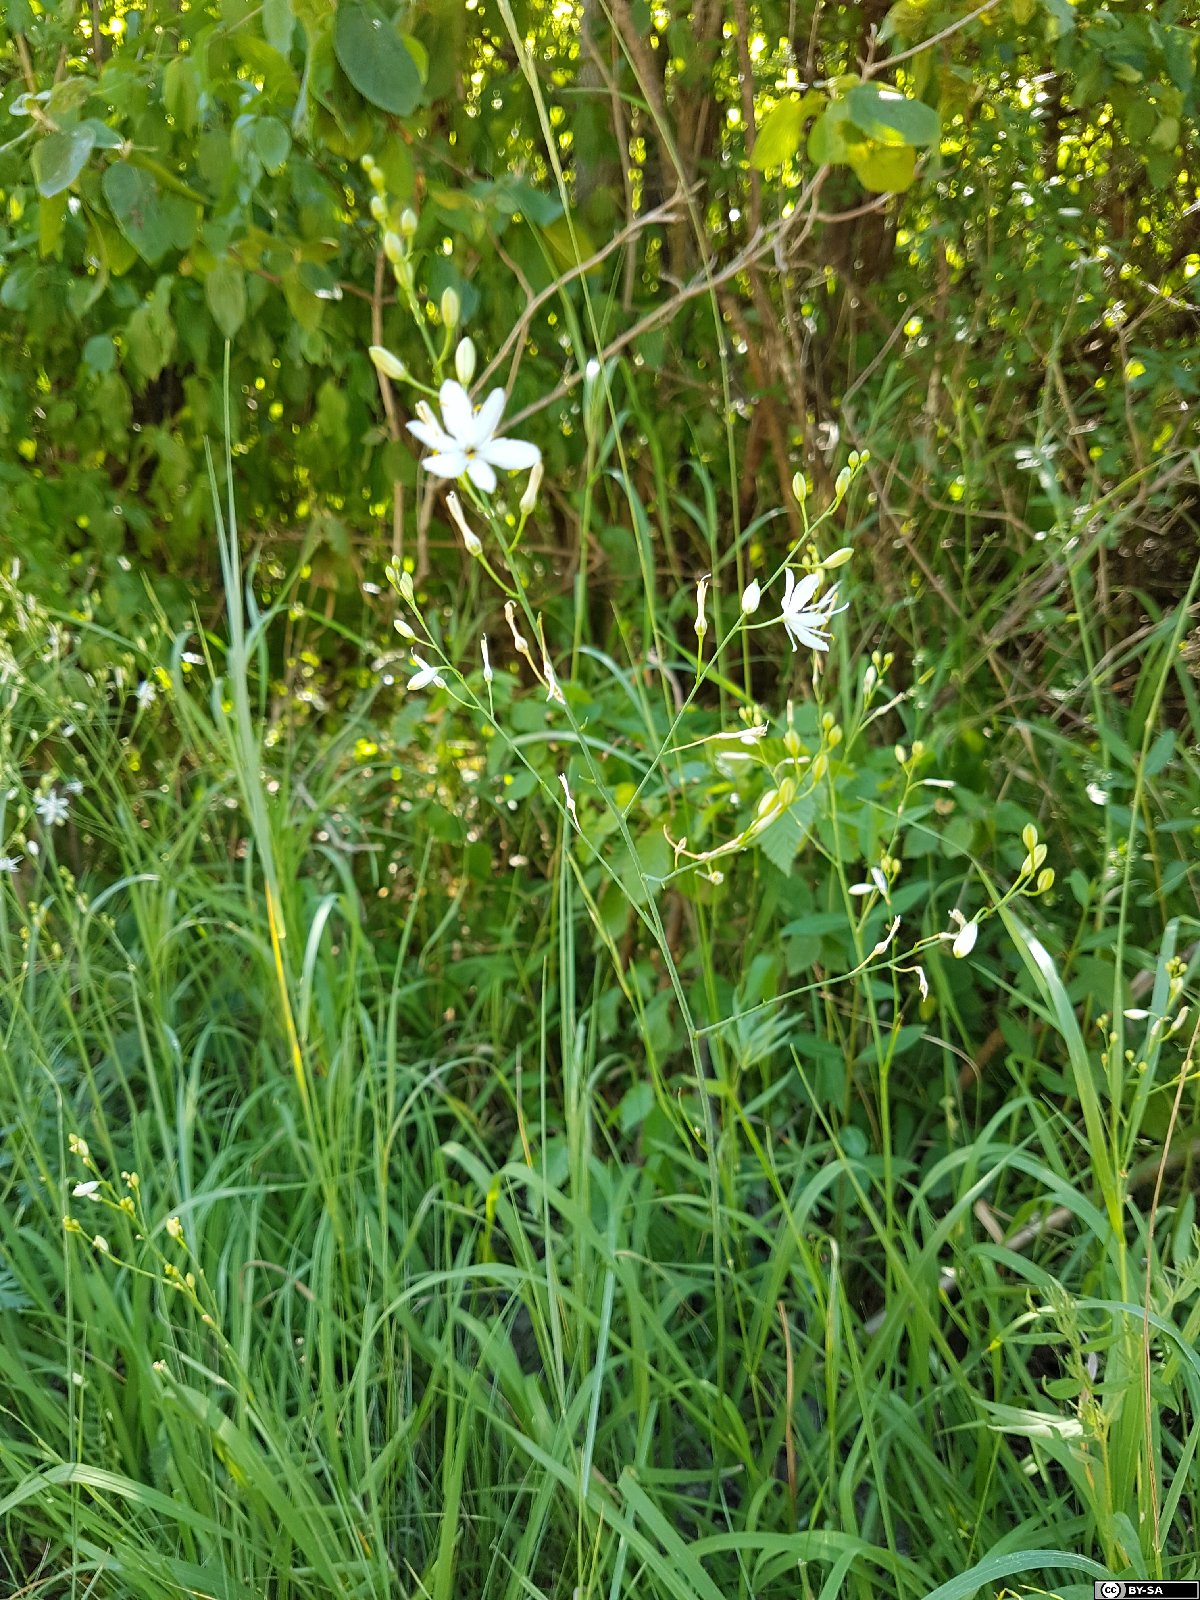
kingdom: Plantae
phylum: Tracheophyta
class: Liliopsida
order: Asparagales
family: Asparagaceae
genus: Anthericum
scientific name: Anthericum ramosum
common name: Branched st. bernard's-lily
